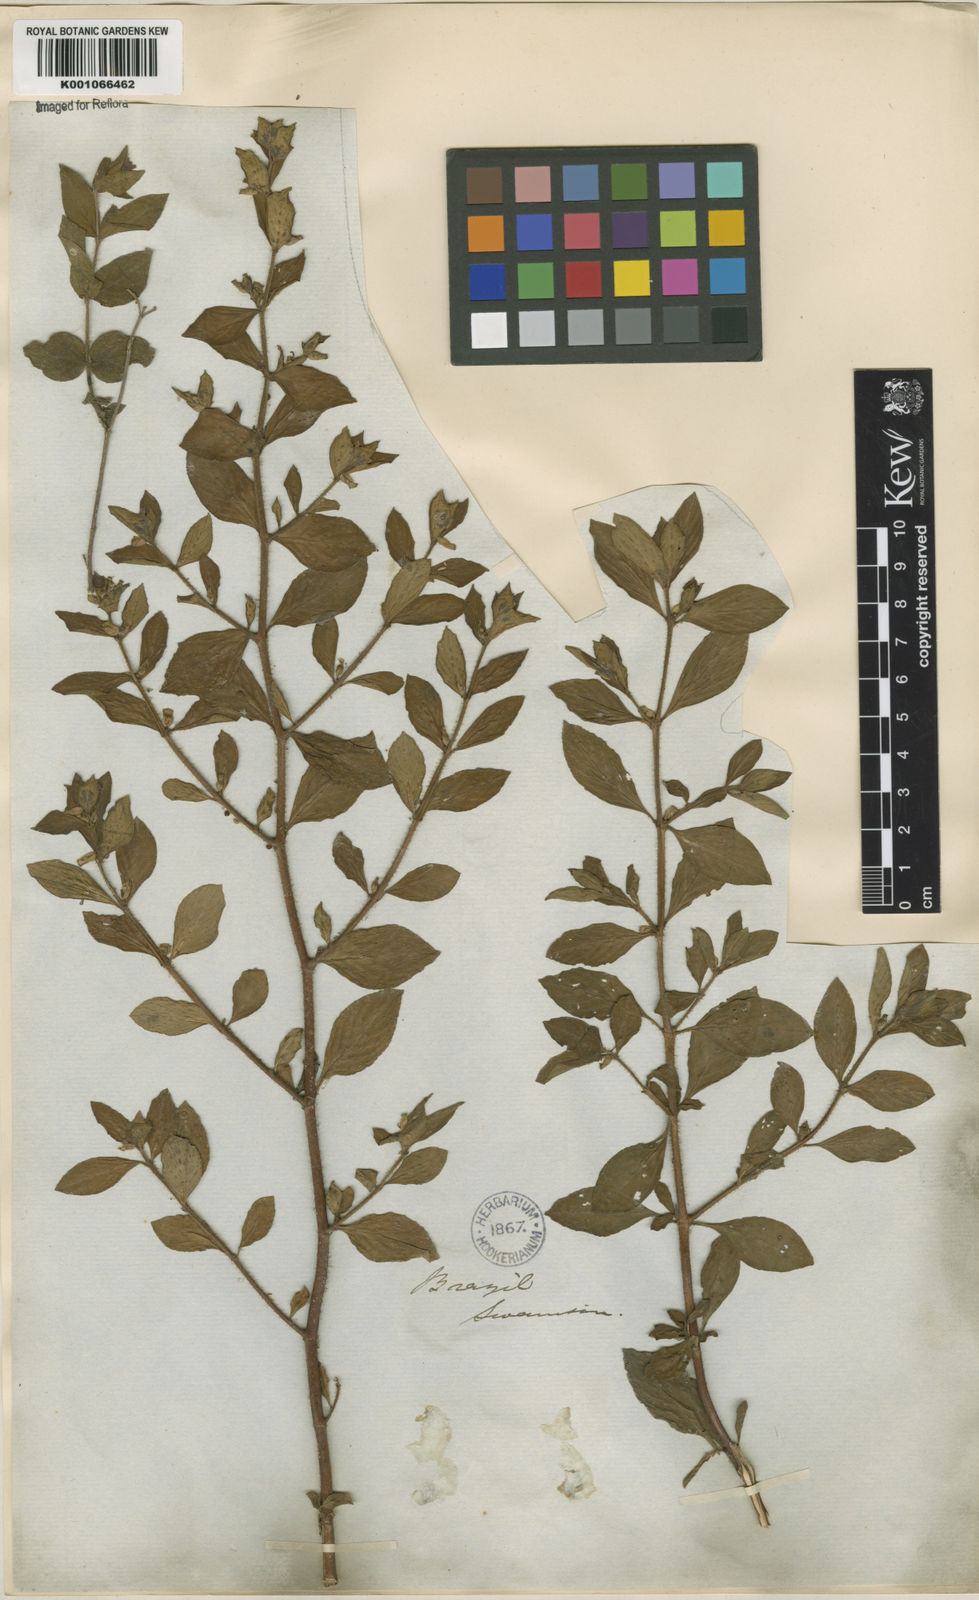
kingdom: Plantae
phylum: Tracheophyta
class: Magnoliopsida
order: Myrtales
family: Lythraceae
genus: Cuphea
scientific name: Cuphea carthagenensis
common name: Colombian waxweed
